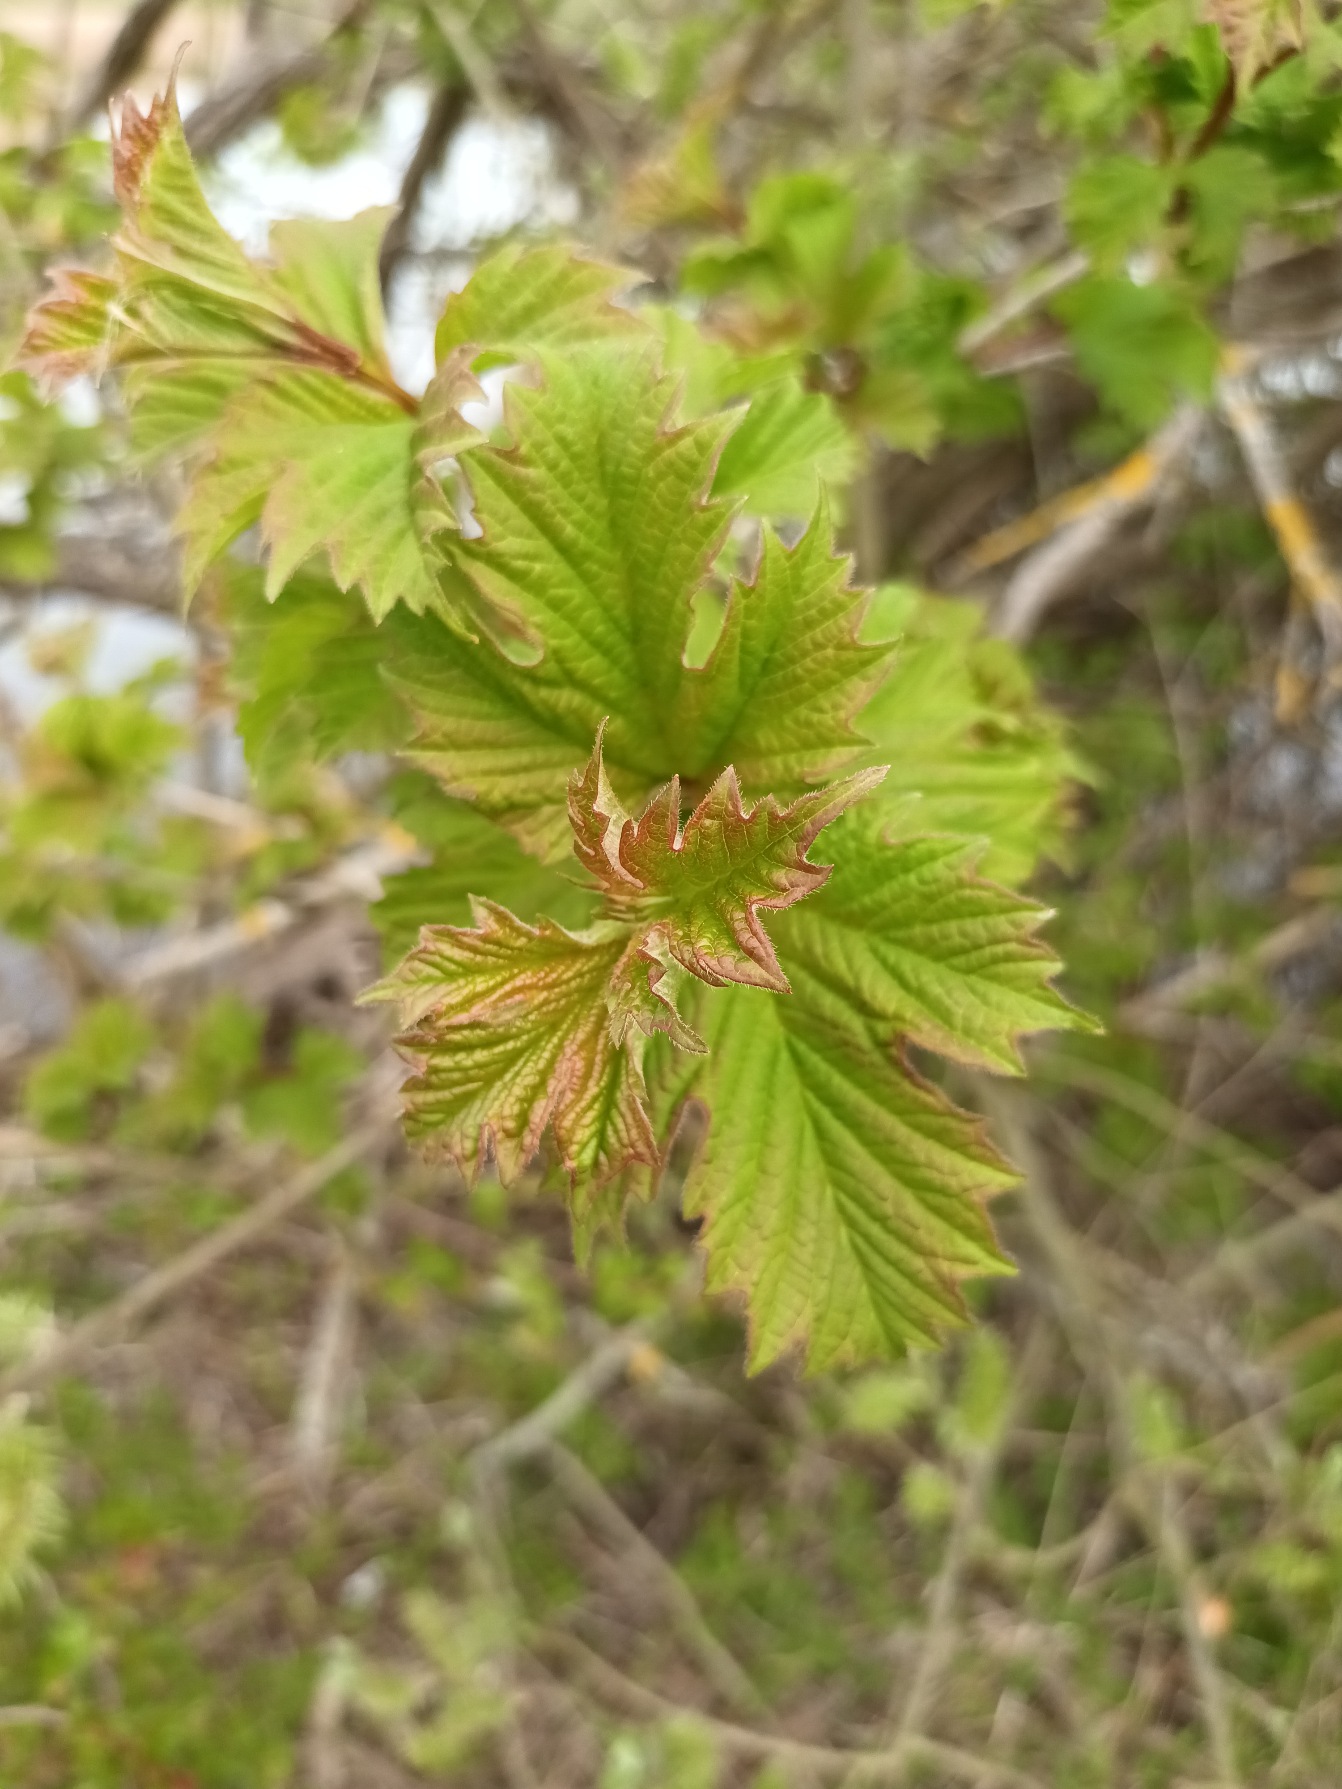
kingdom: Plantae
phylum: Tracheophyta
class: Magnoliopsida
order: Dipsacales
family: Viburnaceae
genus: Viburnum
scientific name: Viburnum opulus
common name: Kvalkved
